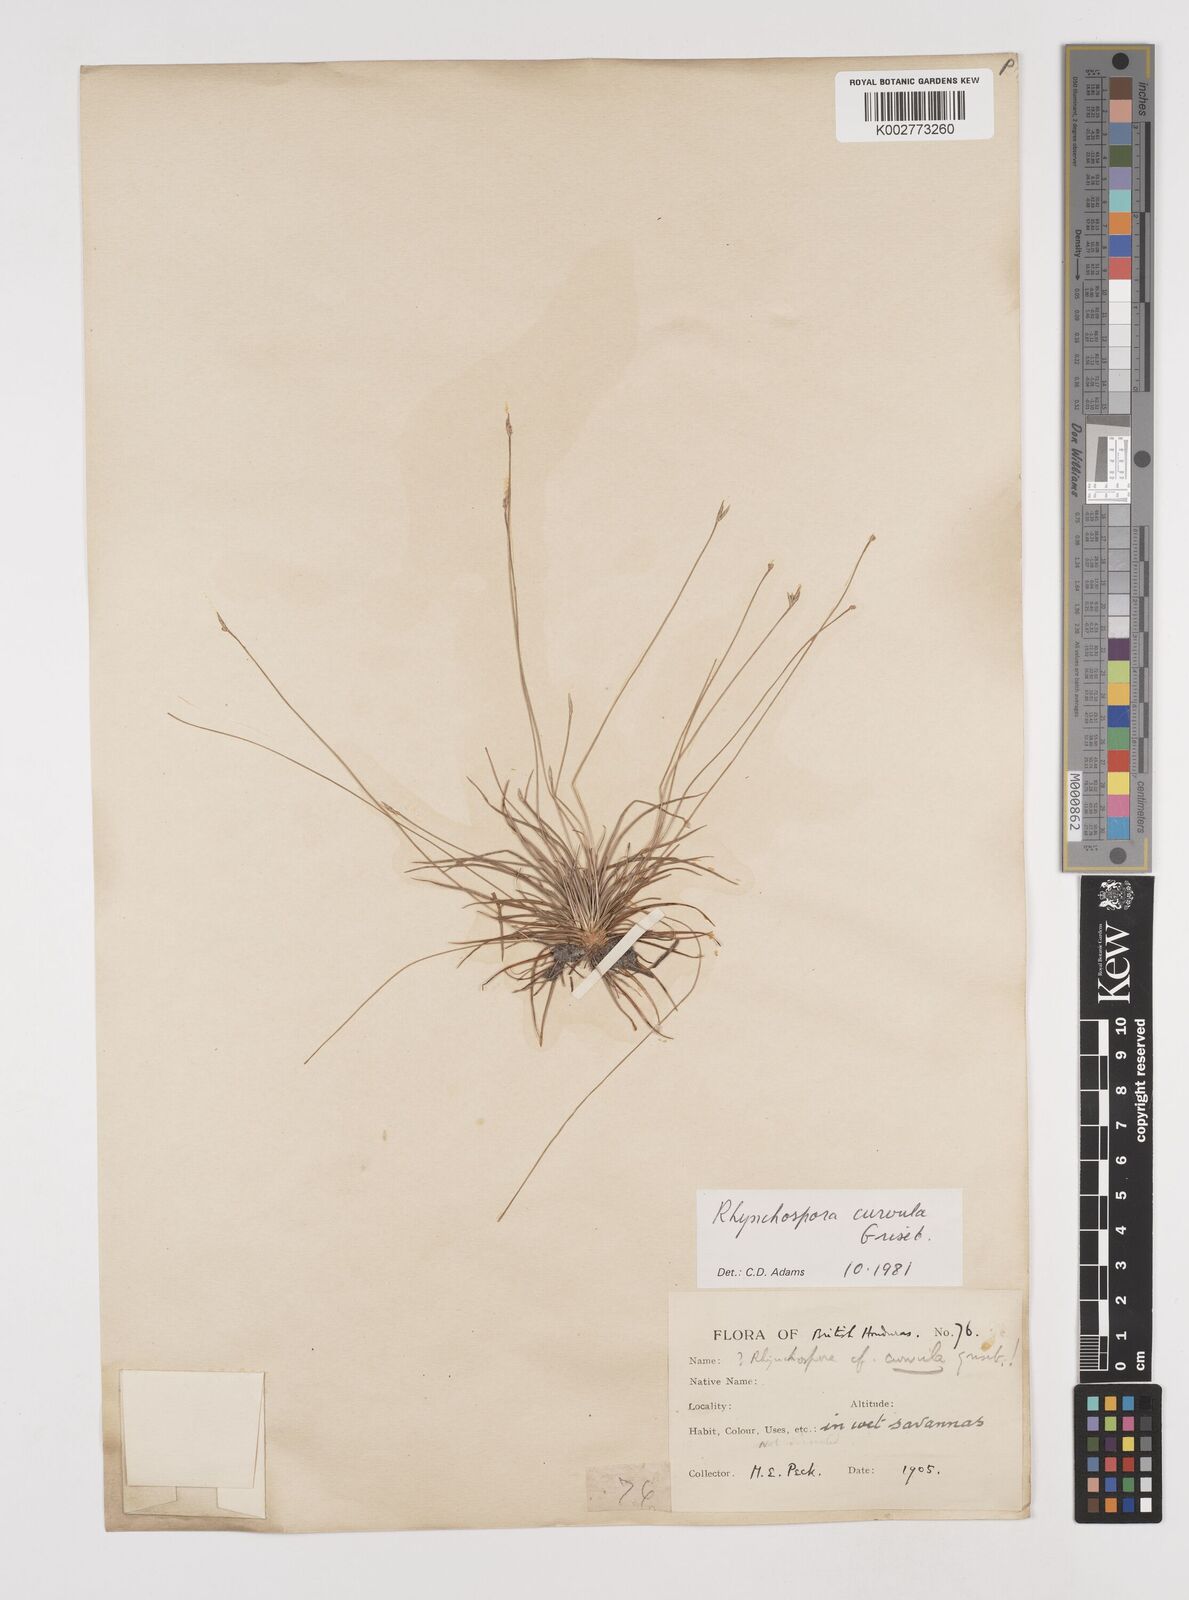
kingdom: Plantae
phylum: Tracheophyta
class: Liliopsida
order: Poales
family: Cyperaceae
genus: Rhynchospora
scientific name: Rhynchospora curvula
